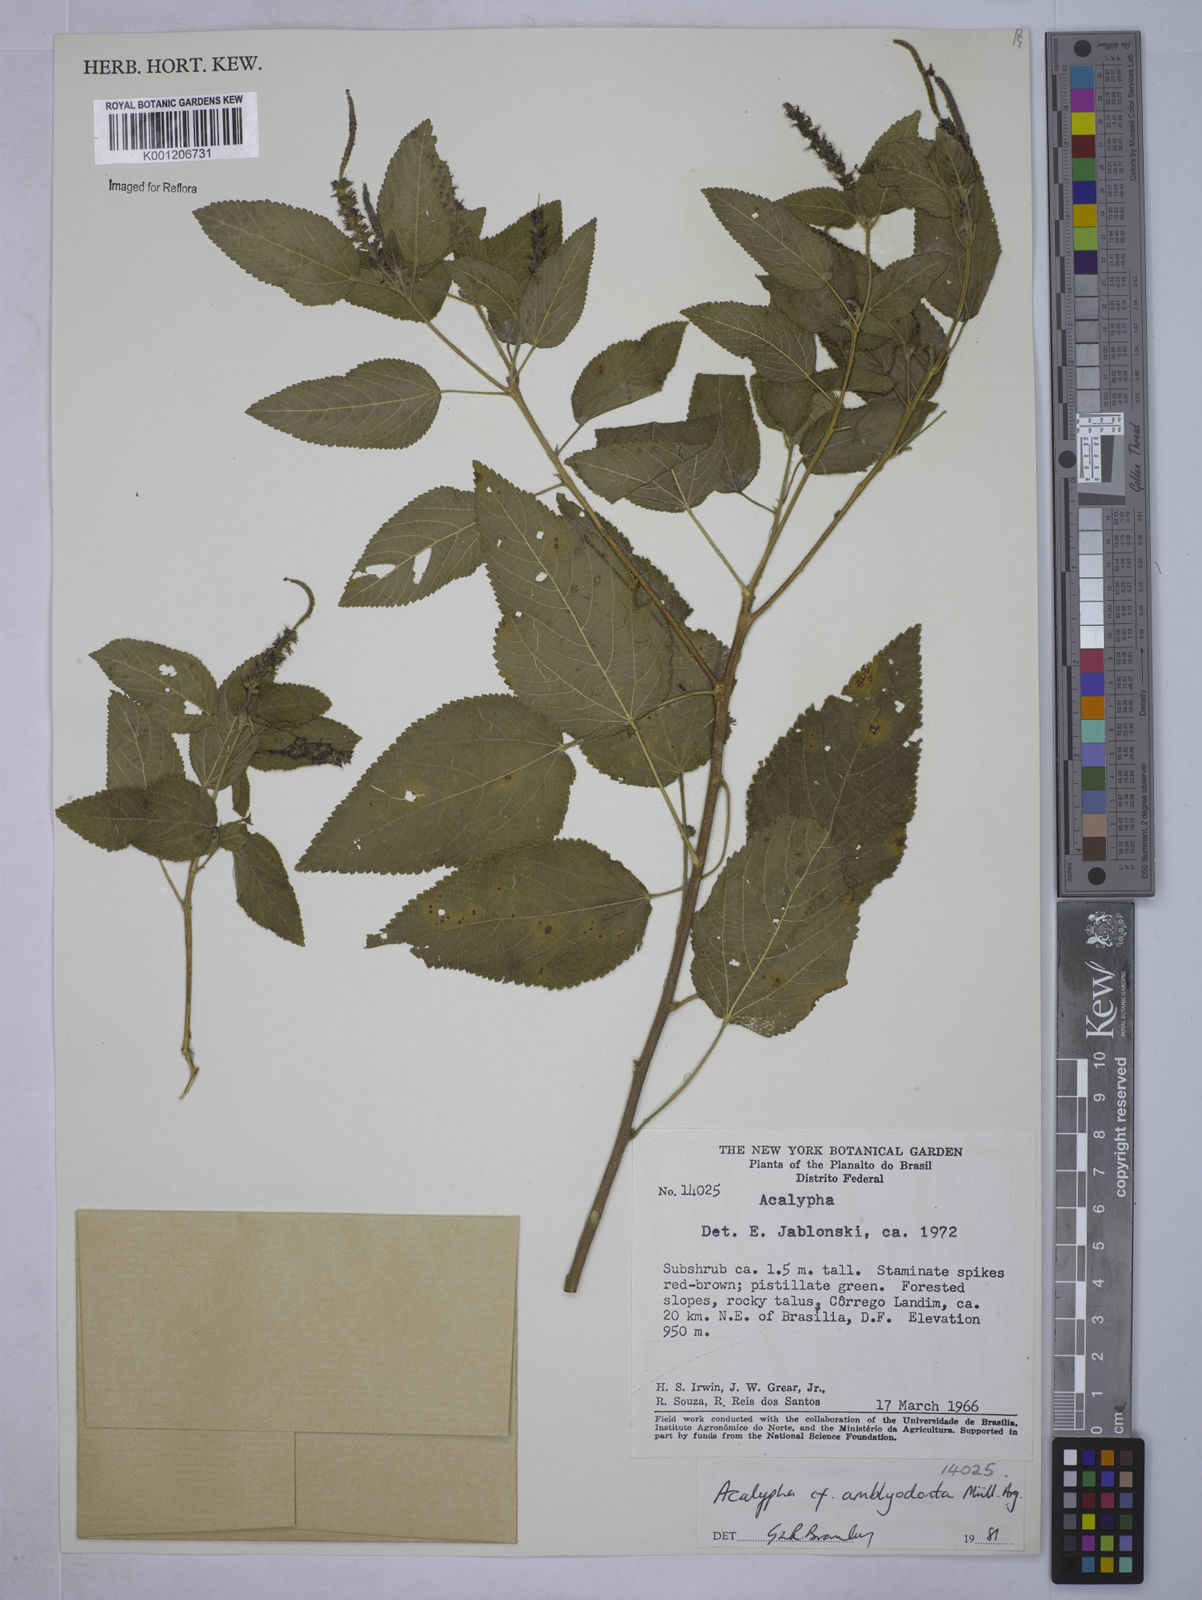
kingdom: Plantae
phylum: Tracheophyta
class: Magnoliopsida
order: Malpighiales
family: Euphorbiaceae
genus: Acalypha
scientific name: Acalypha
